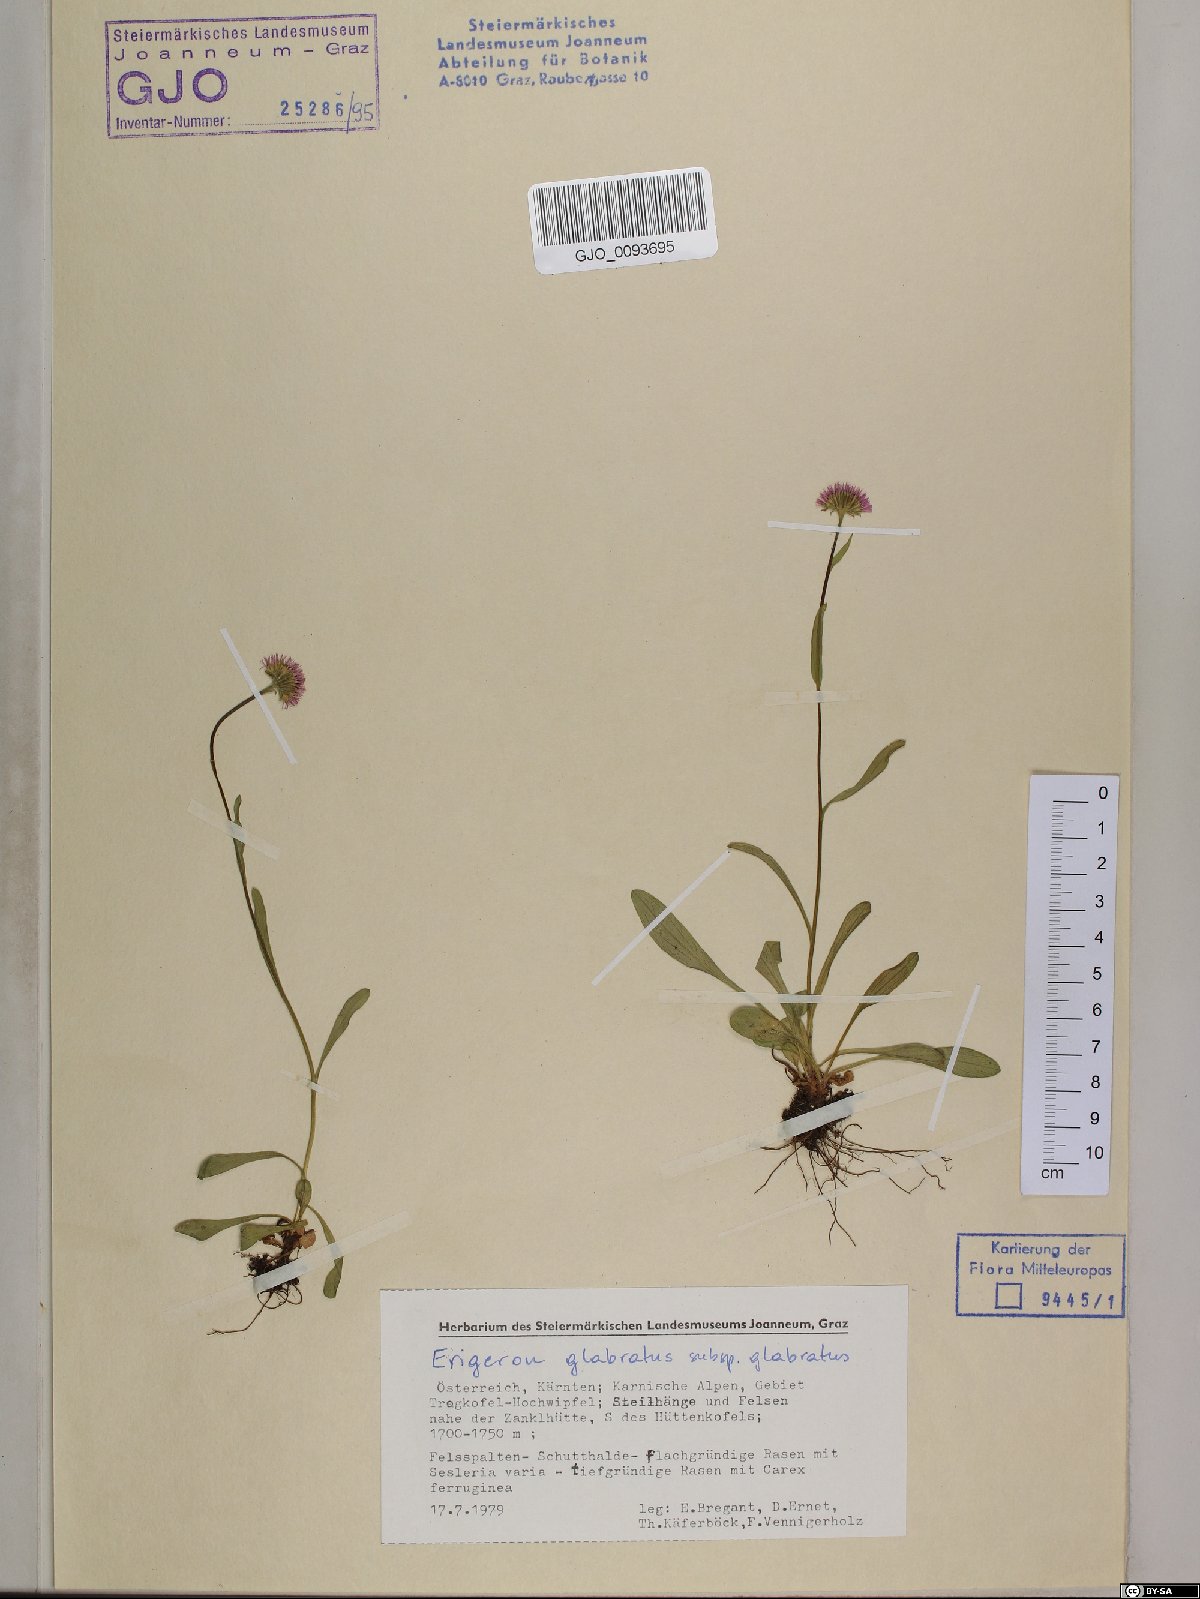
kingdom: Plantae
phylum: Tracheophyta
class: Magnoliopsida
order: Asterales
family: Asteraceae
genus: Erigeron
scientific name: Erigeron glabratus
